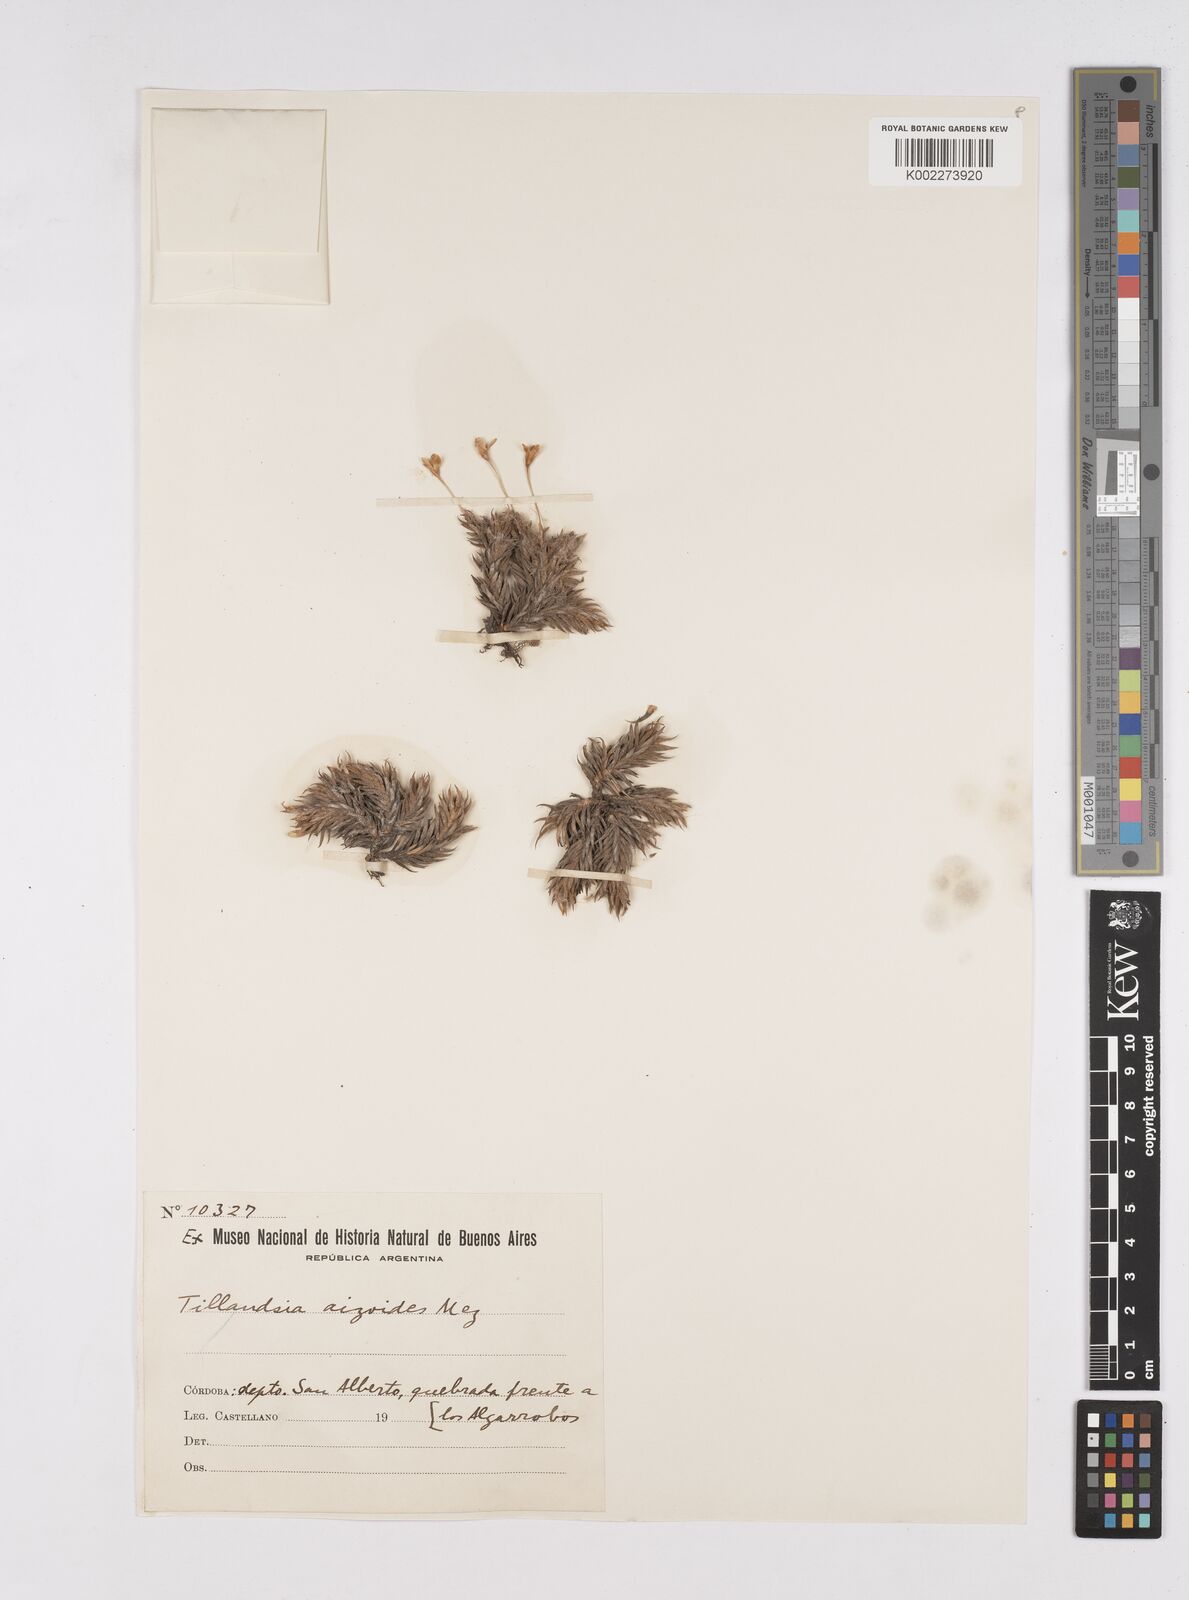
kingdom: Plantae
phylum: Tracheophyta
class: Liliopsida
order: Poales
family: Bromeliaceae
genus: Tillandsia
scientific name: Tillandsia aizoides
